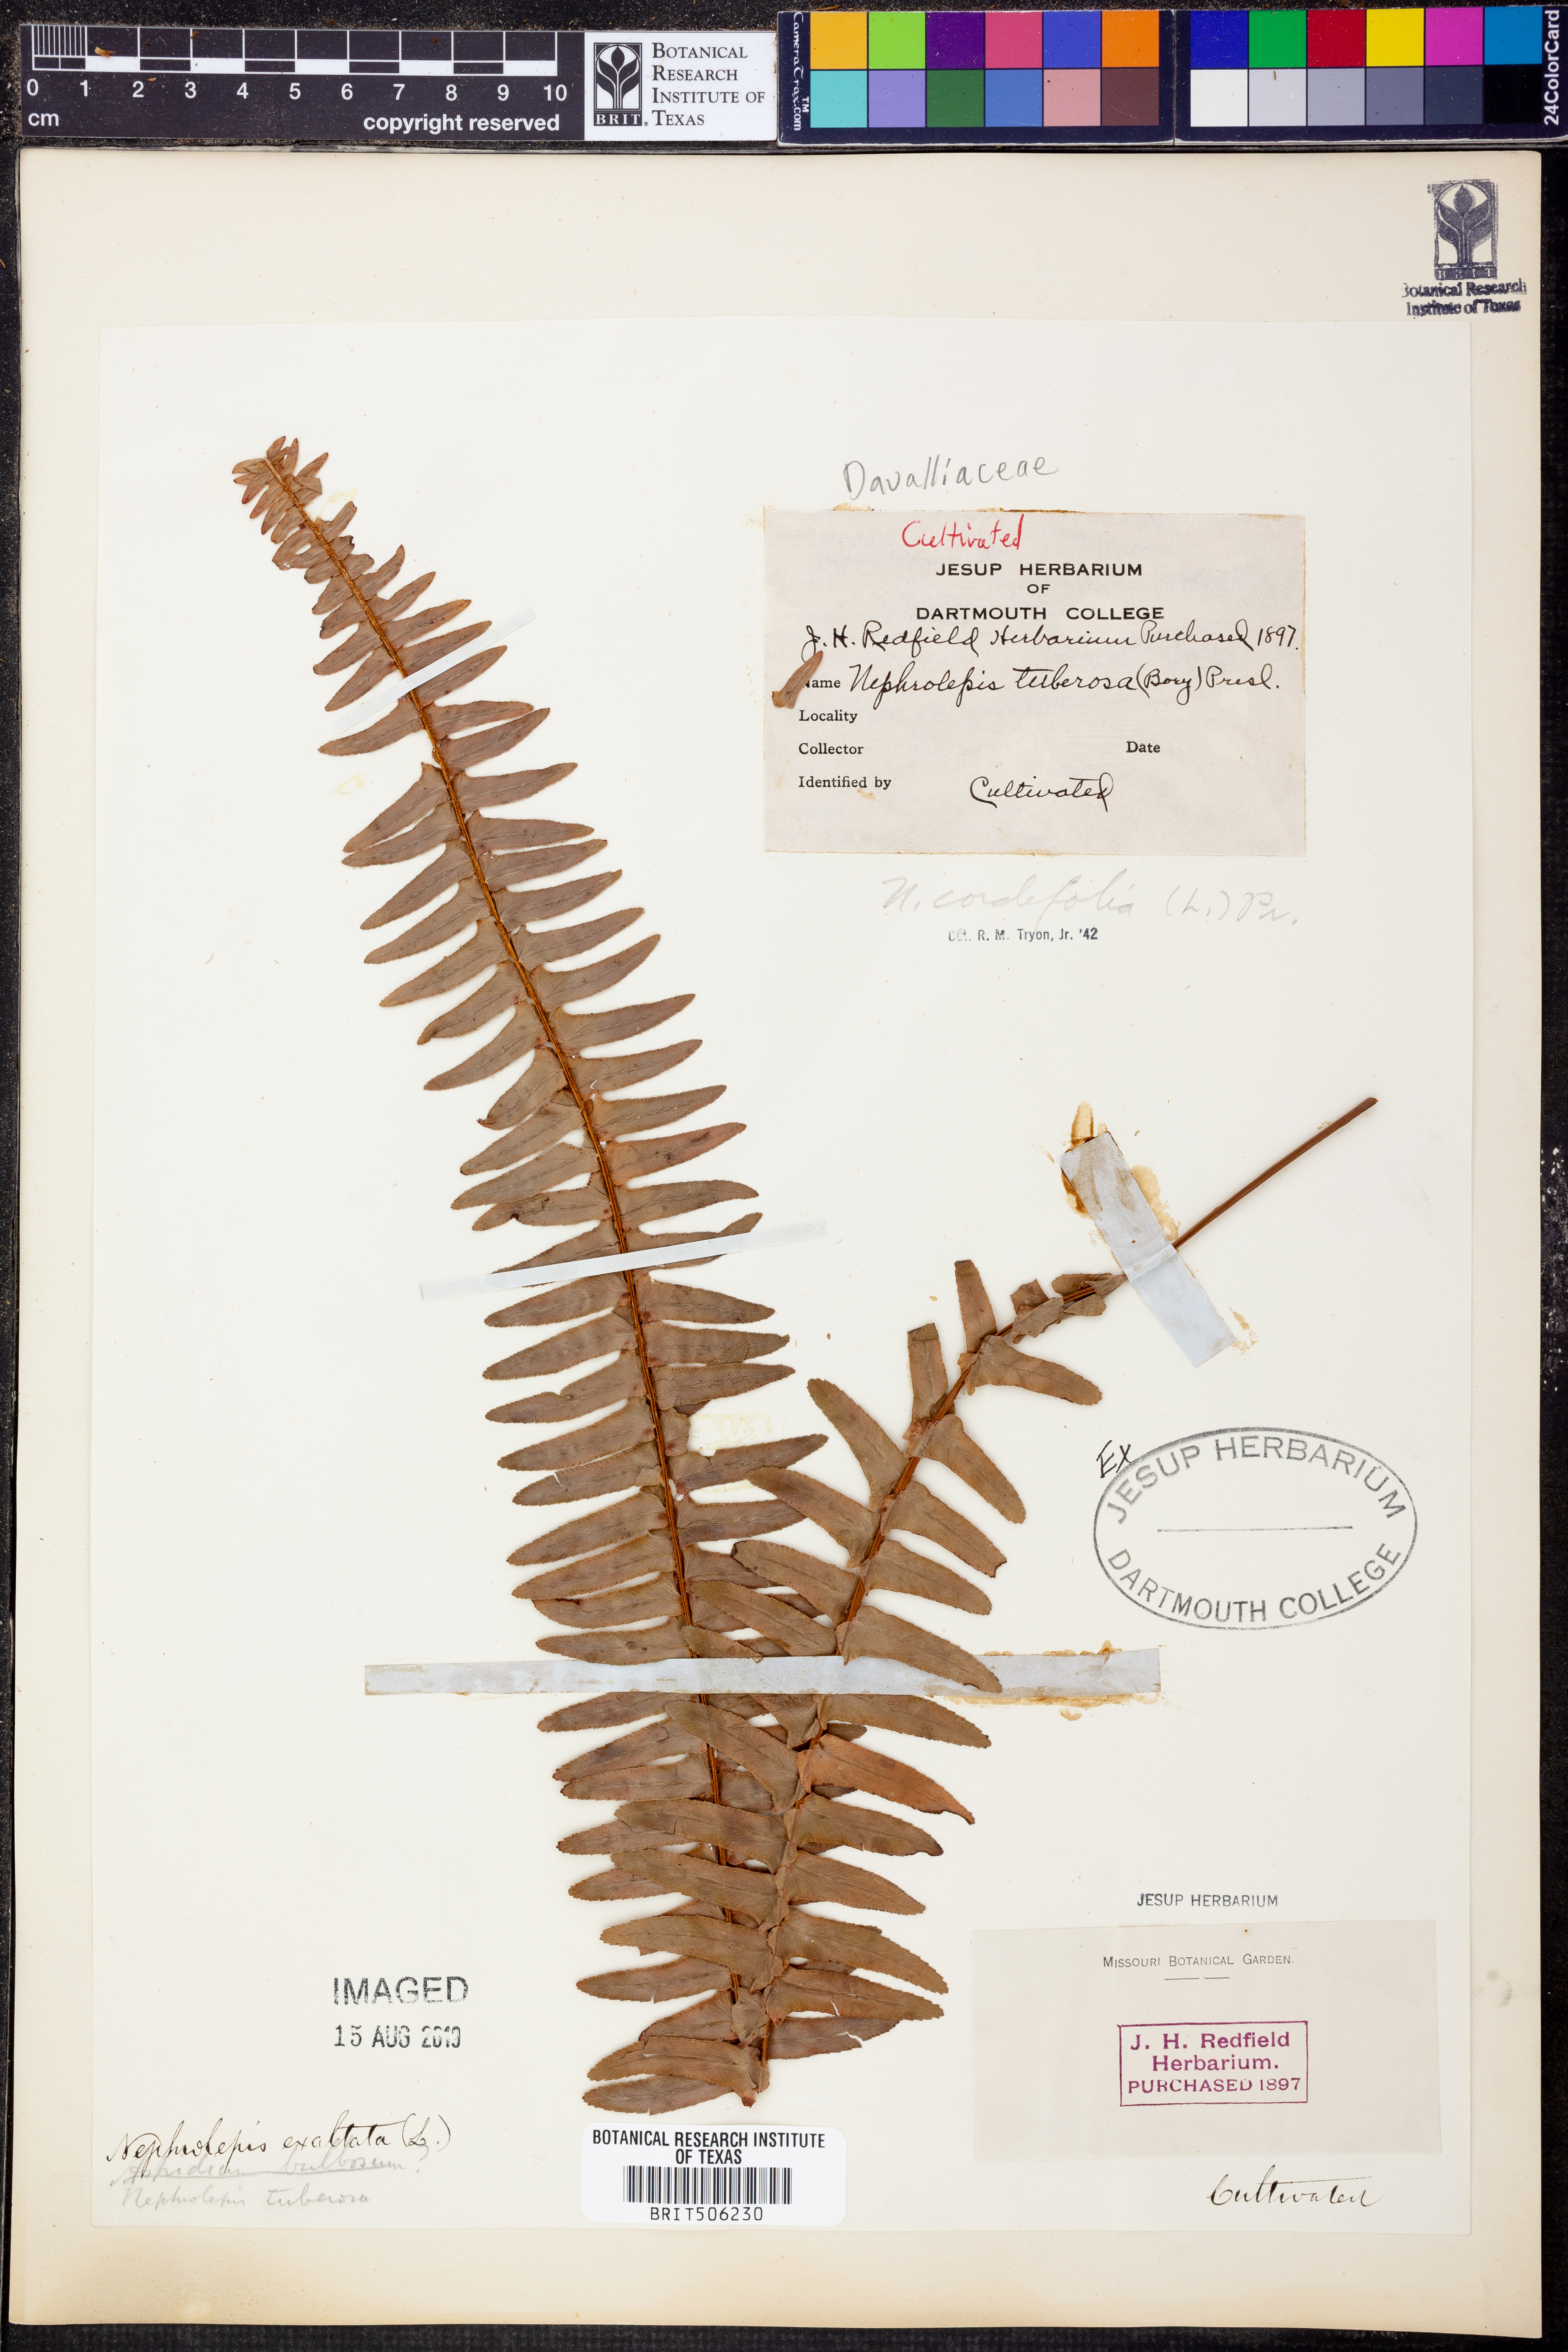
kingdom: Plantae
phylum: Tracheophyta
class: Polypodiopsida
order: Polypodiales
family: Nephrolepidaceae
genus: Nephrolepis
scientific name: Nephrolepis cordifolia
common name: Narrow swordfern
